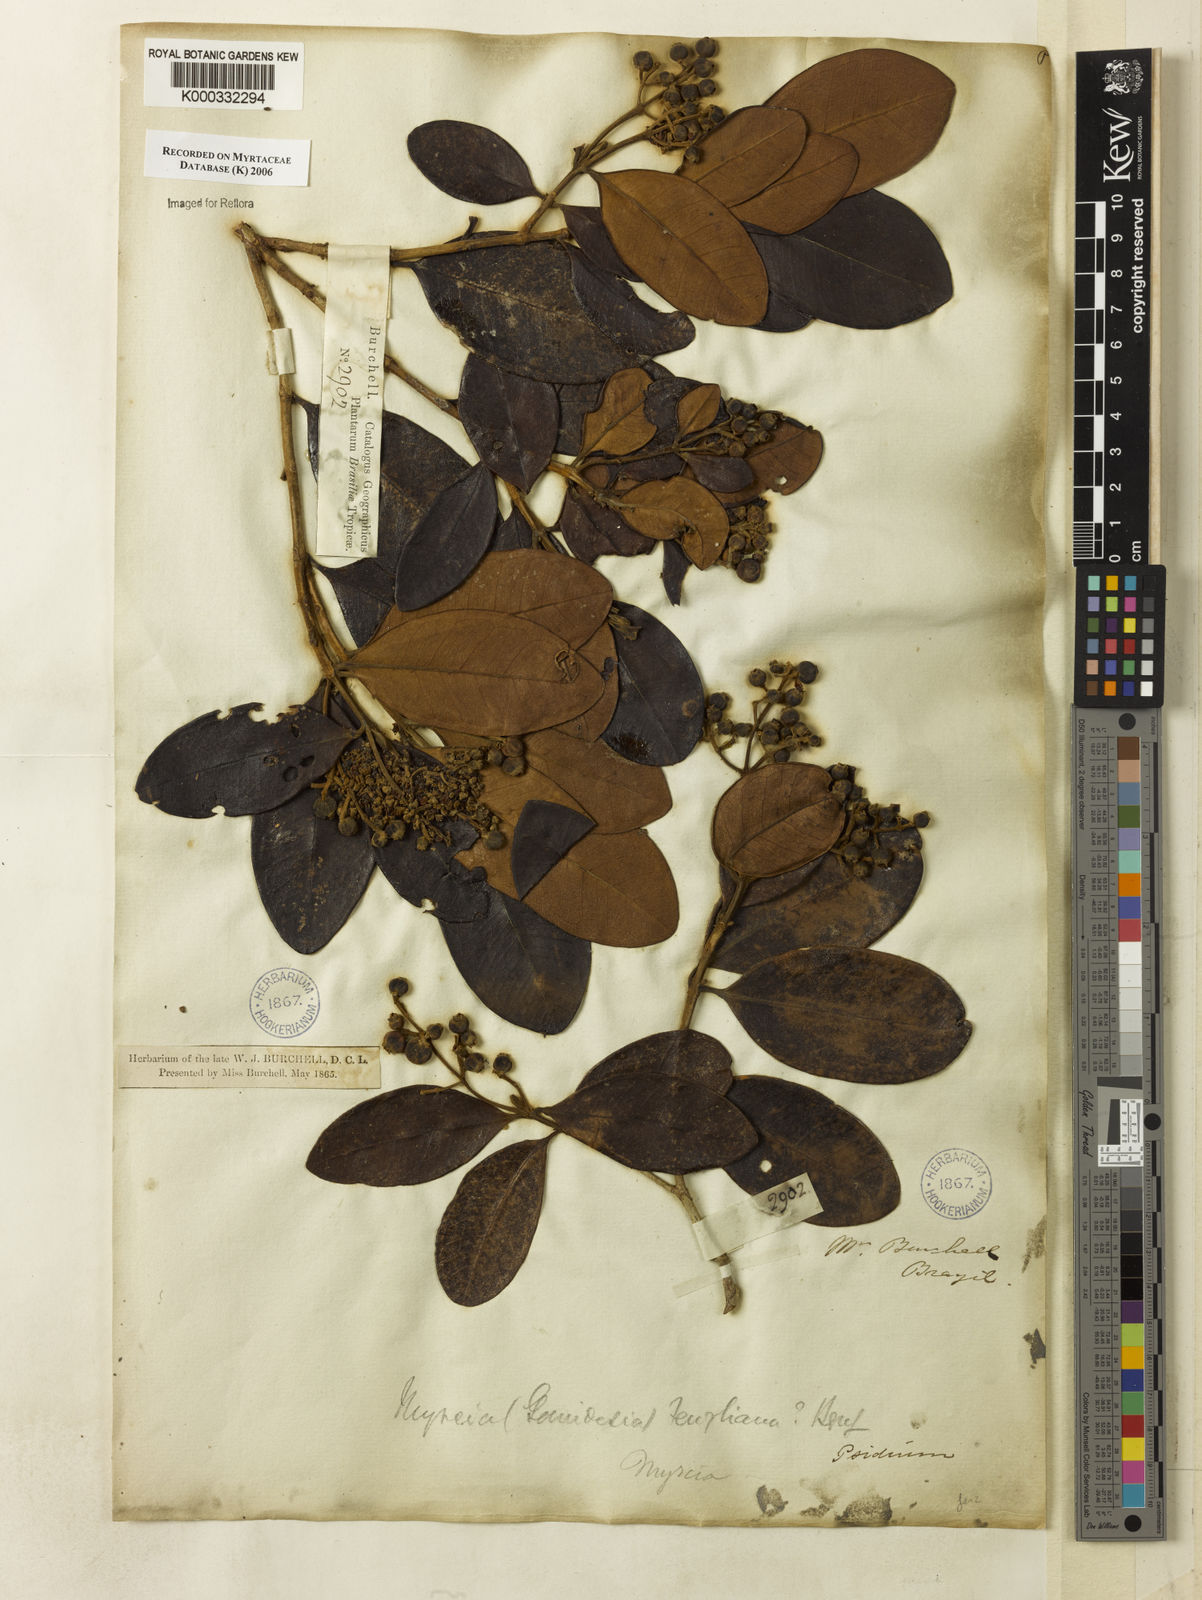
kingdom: Plantae
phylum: Tracheophyta
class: Magnoliopsida
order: Myrtales
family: Myrtaceae
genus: Myrcia
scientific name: Myrcia ilheosensis
